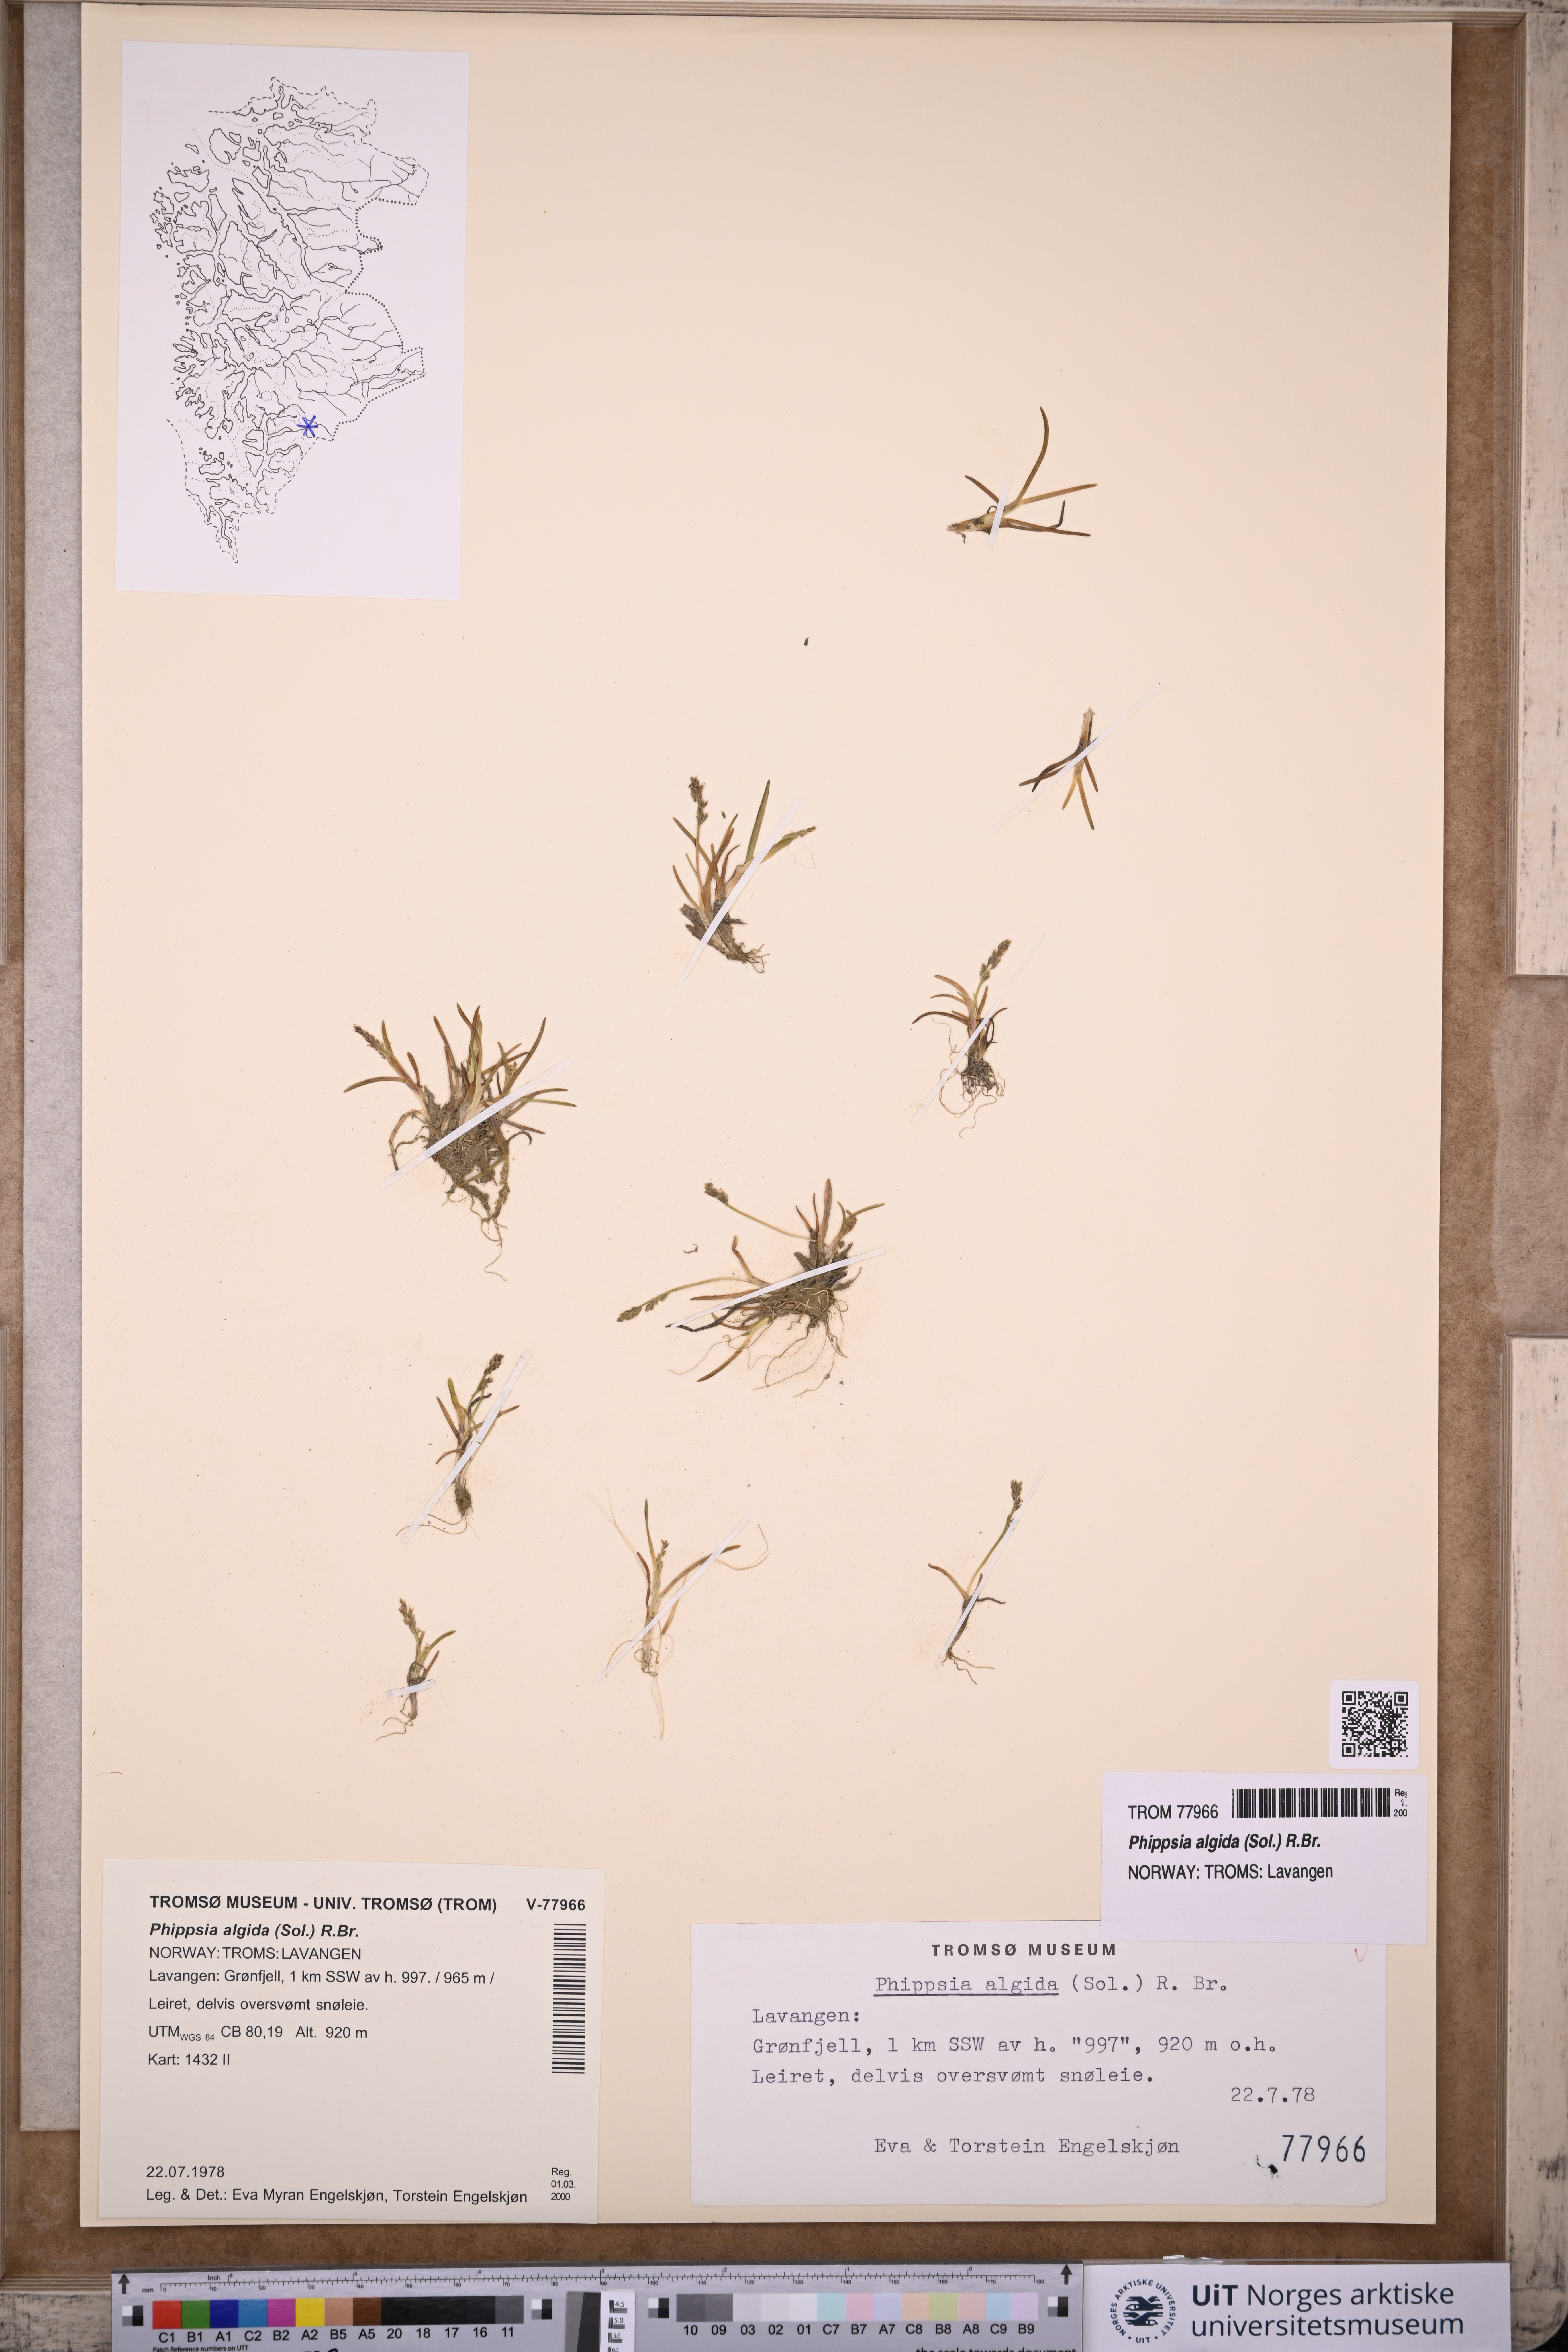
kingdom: Plantae
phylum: Tracheophyta
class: Liliopsida
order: Poales
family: Poaceae
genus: Phippsia
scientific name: Phippsia algida
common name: Ice grass
